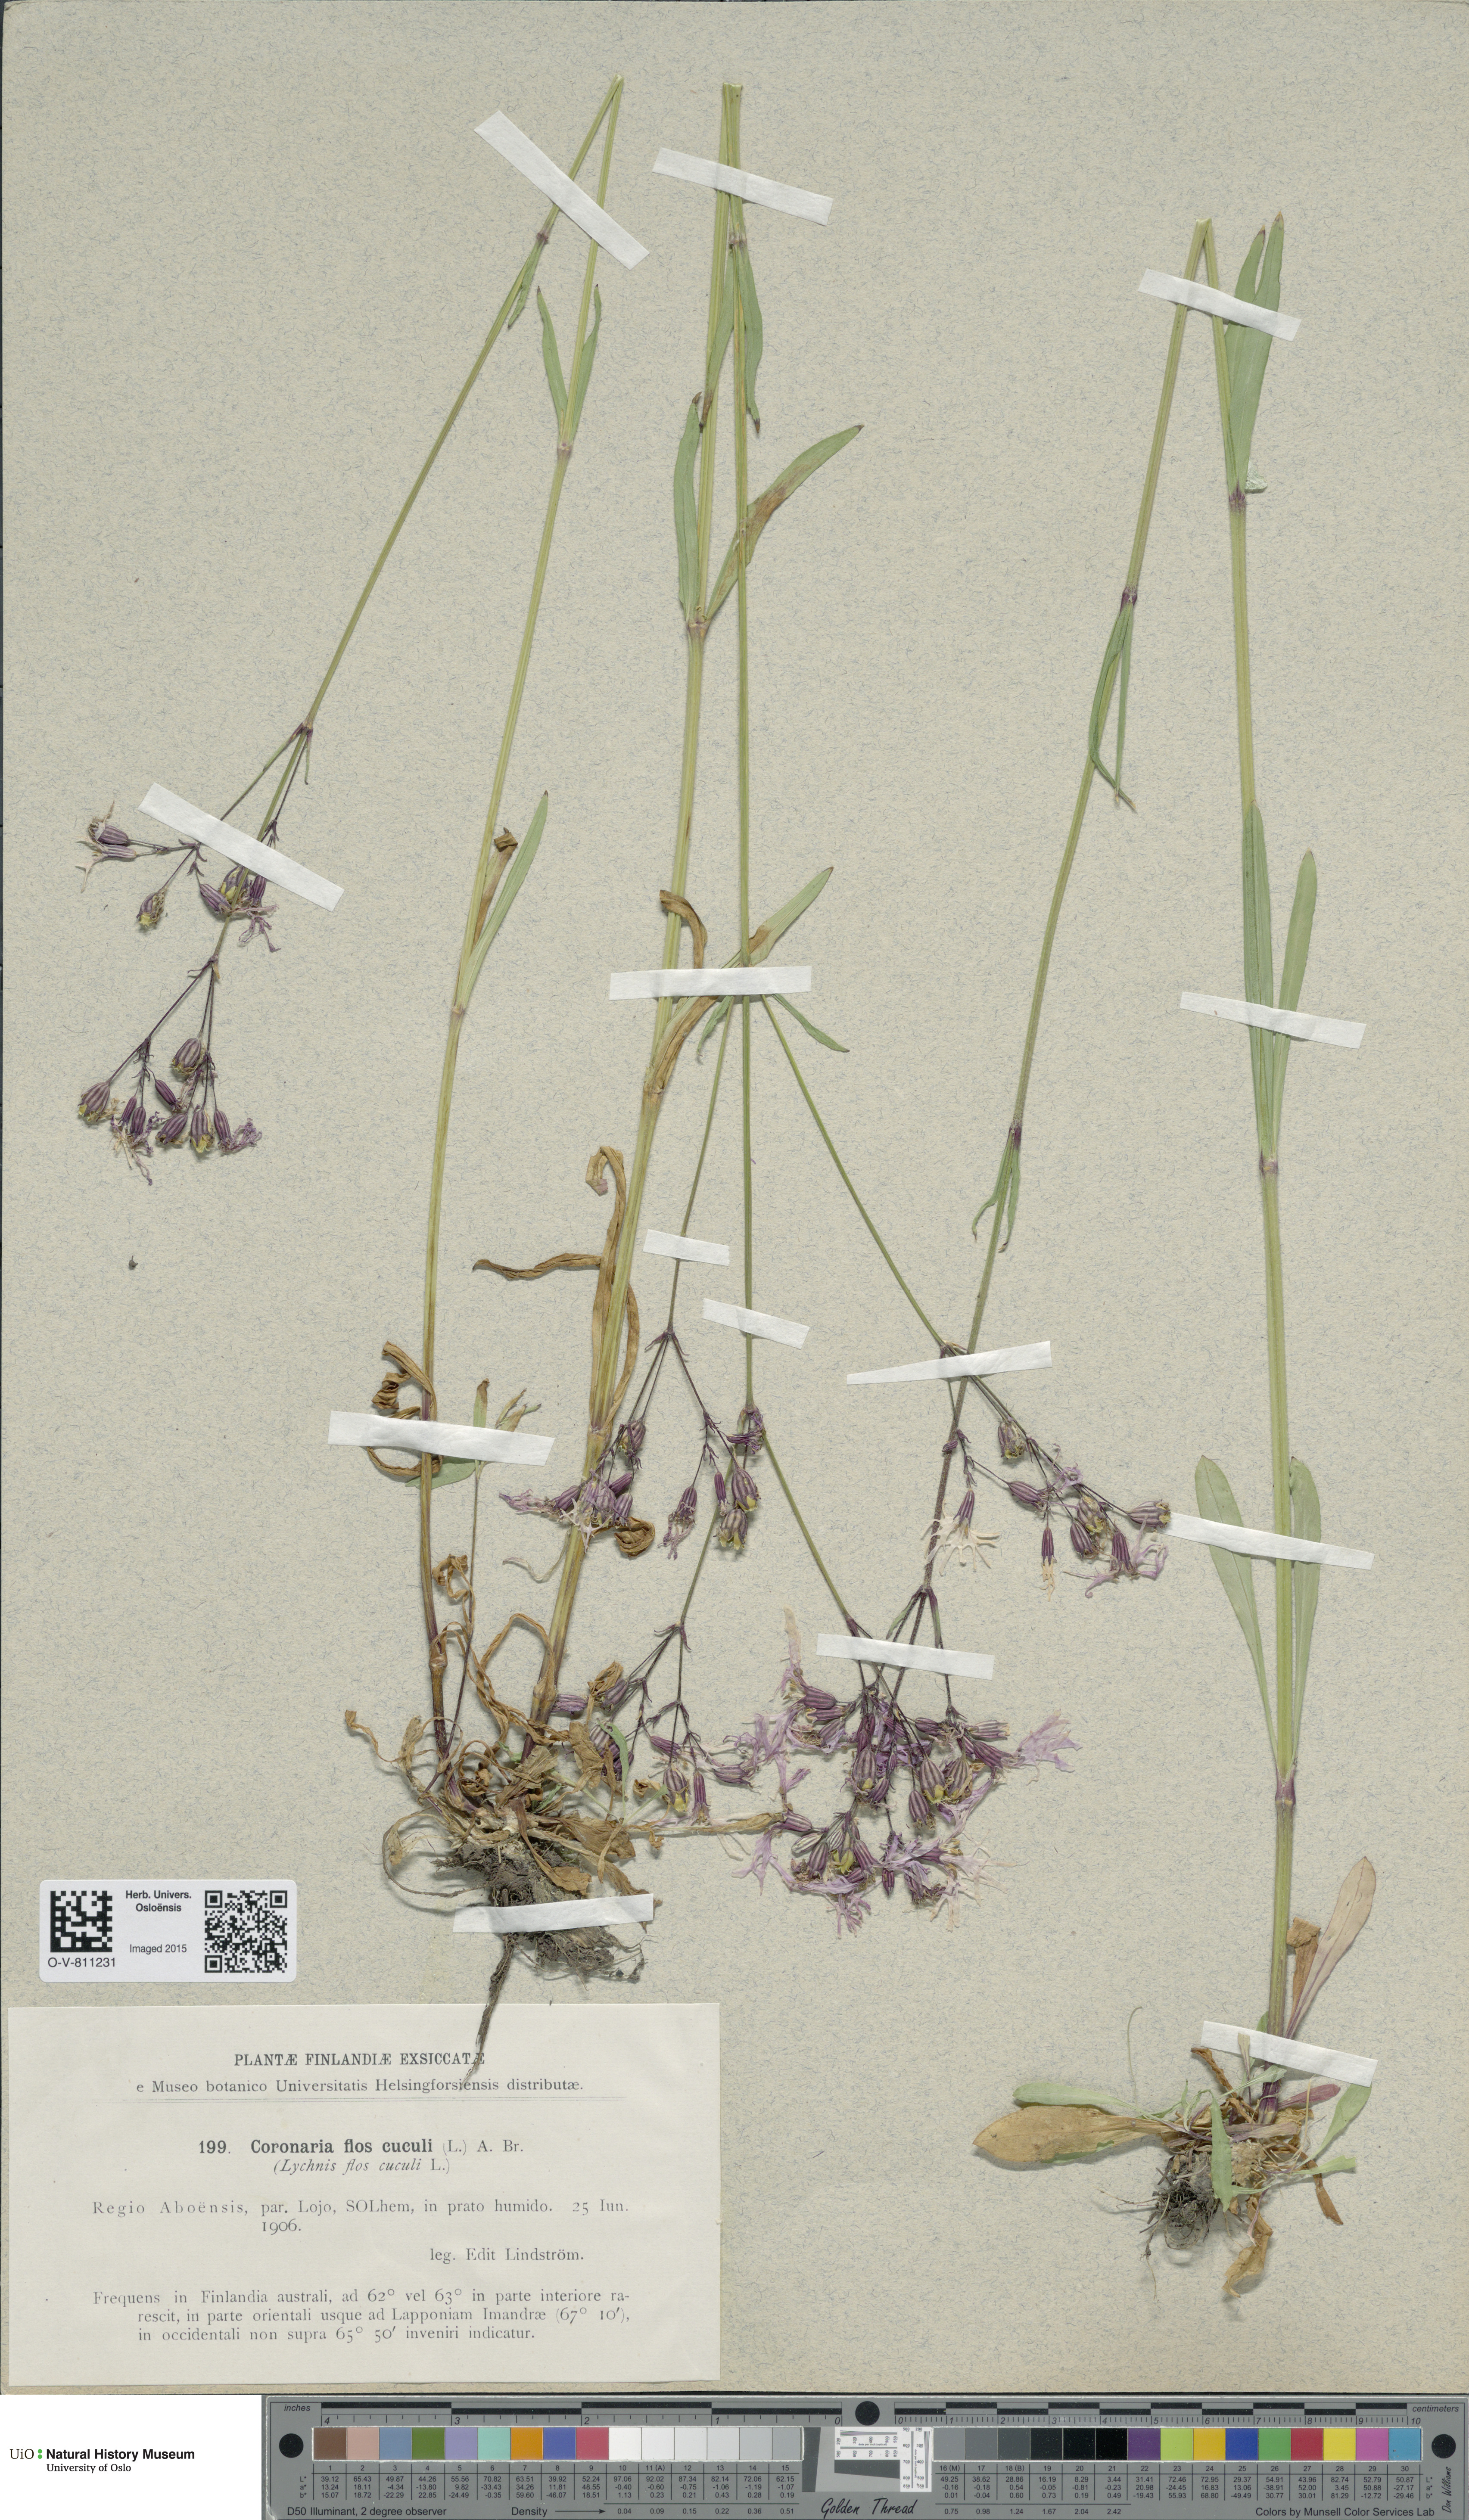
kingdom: Plantae
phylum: Tracheophyta
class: Magnoliopsida
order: Caryophyllales
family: Caryophyllaceae
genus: Silene
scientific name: Silene flos-cuculi
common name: Ragged-robin
